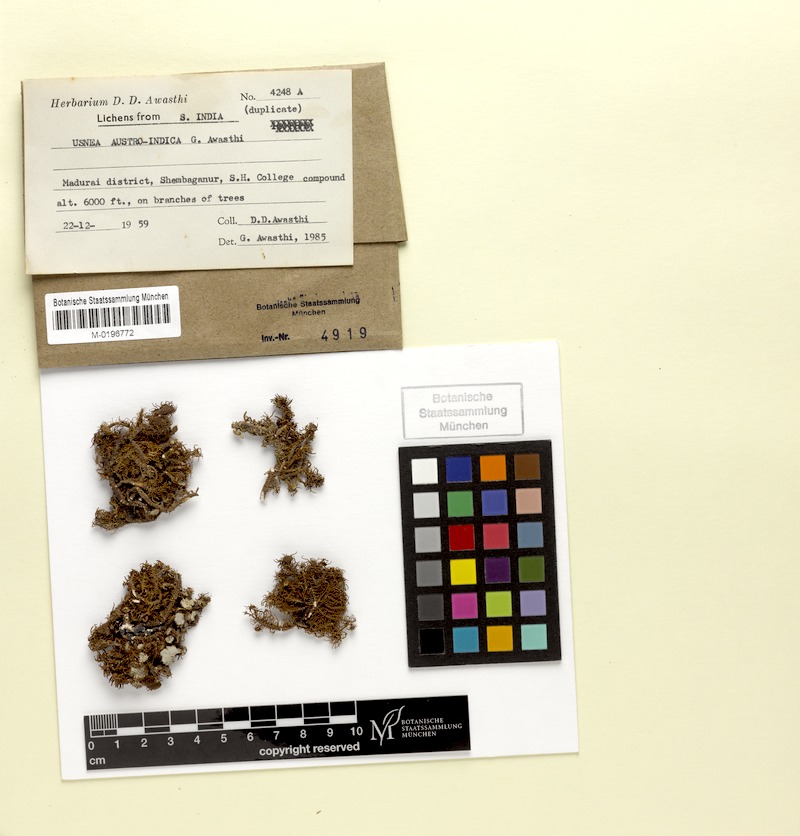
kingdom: Fungi
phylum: Ascomycota
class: Lecanoromycetes
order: Lecanorales
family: Parmeliaceae
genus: Usnea
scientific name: Usnea
